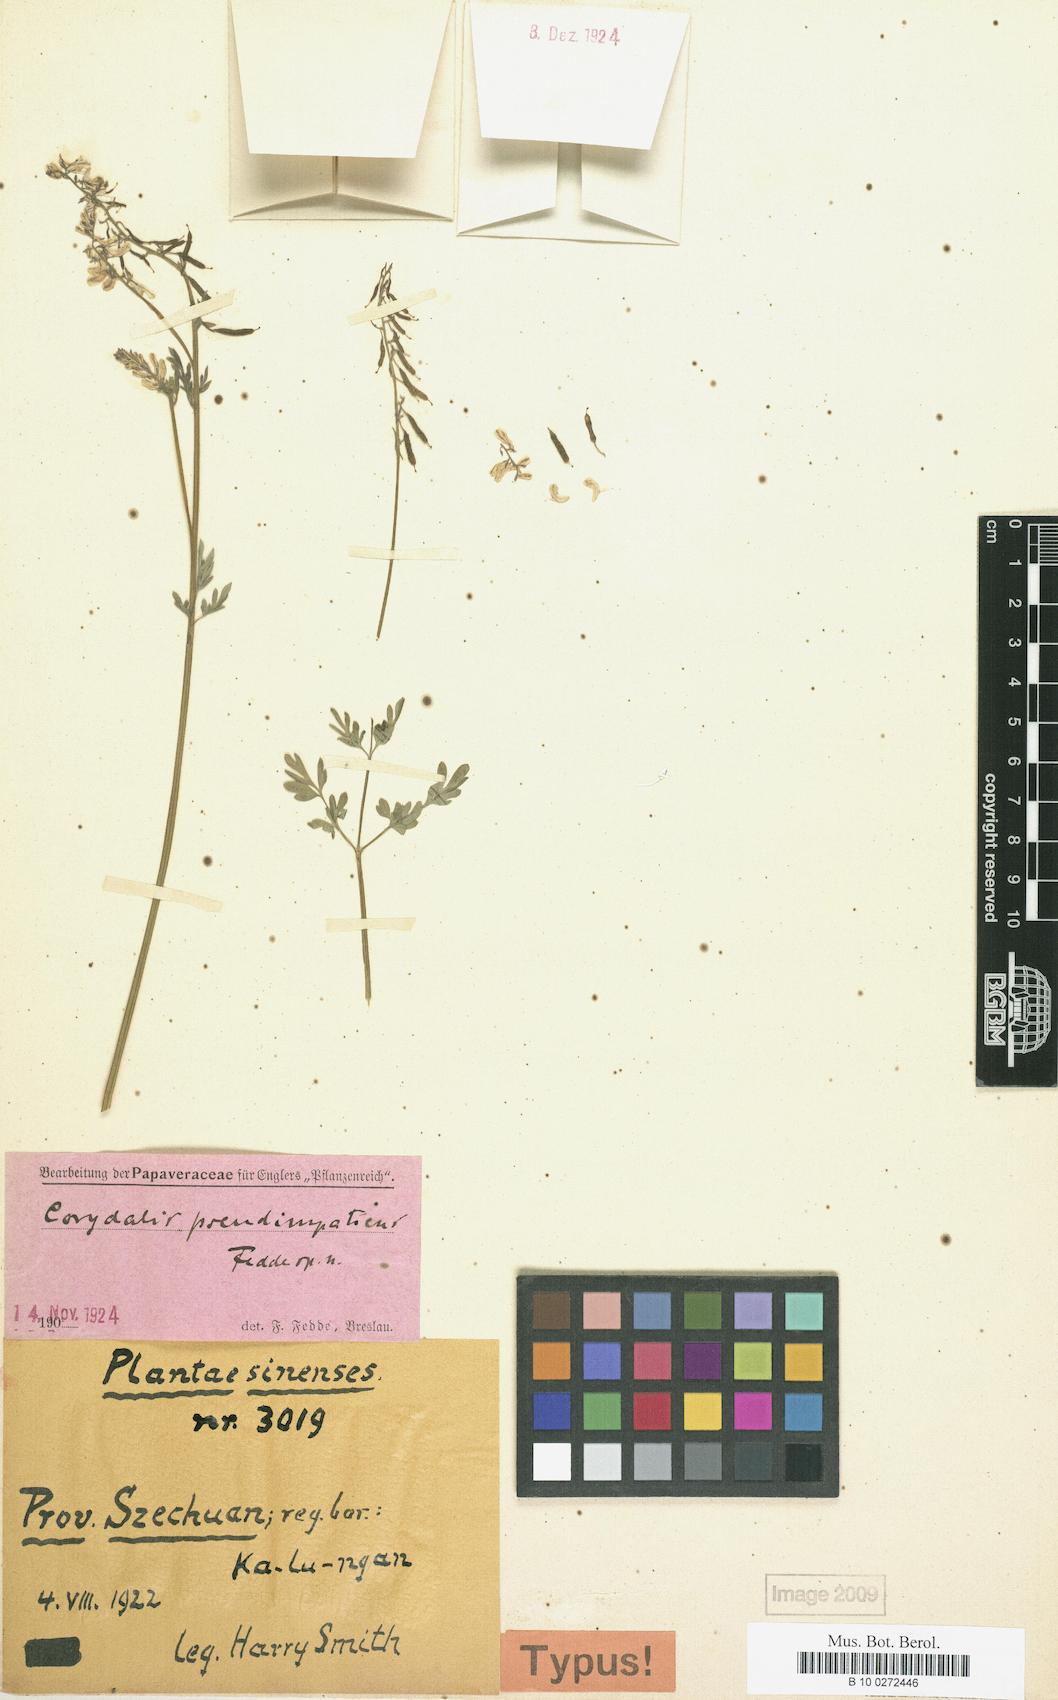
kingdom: Plantae
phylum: Tracheophyta
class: Magnoliopsida
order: Ranunculales
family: Papaveraceae
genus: Corydalis
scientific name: Corydalis pseudoimpatiens
